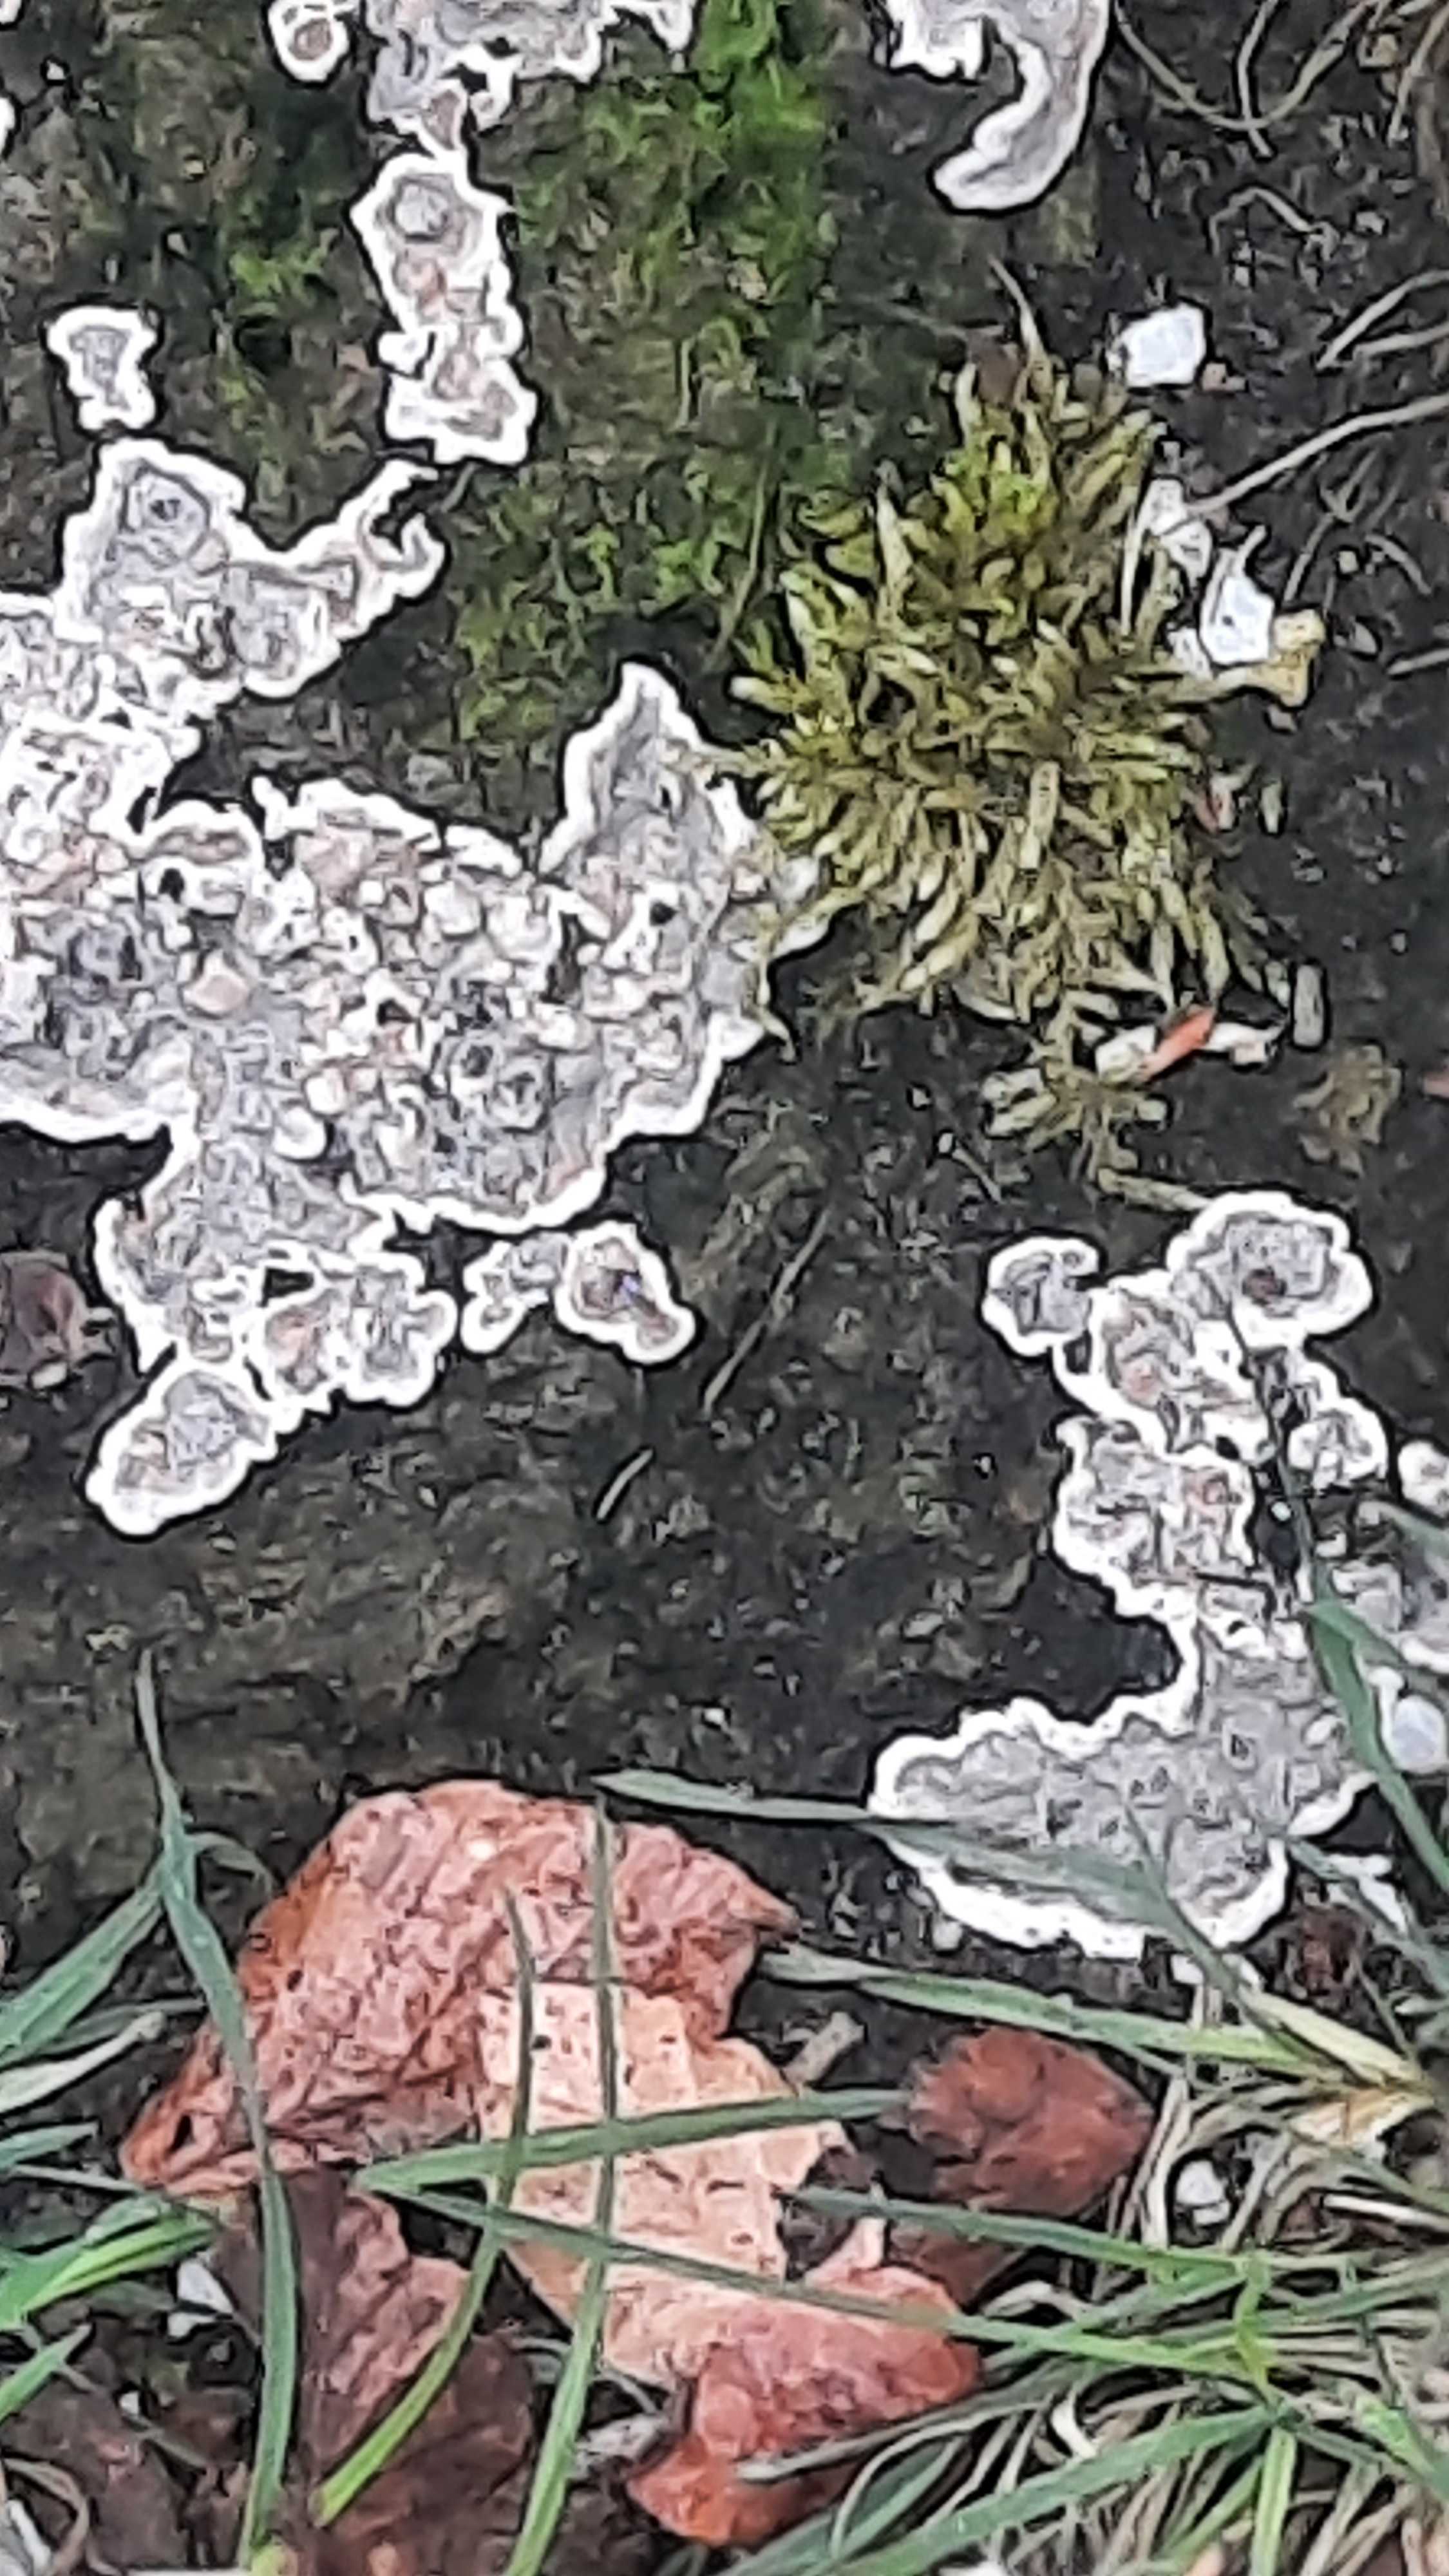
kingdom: Fungi
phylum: Ascomycota
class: Sordariomycetes
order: Xylariales
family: Xylariaceae
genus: Kretzschmaria
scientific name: Kretzschmaria deusta
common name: stor kulsvamp
